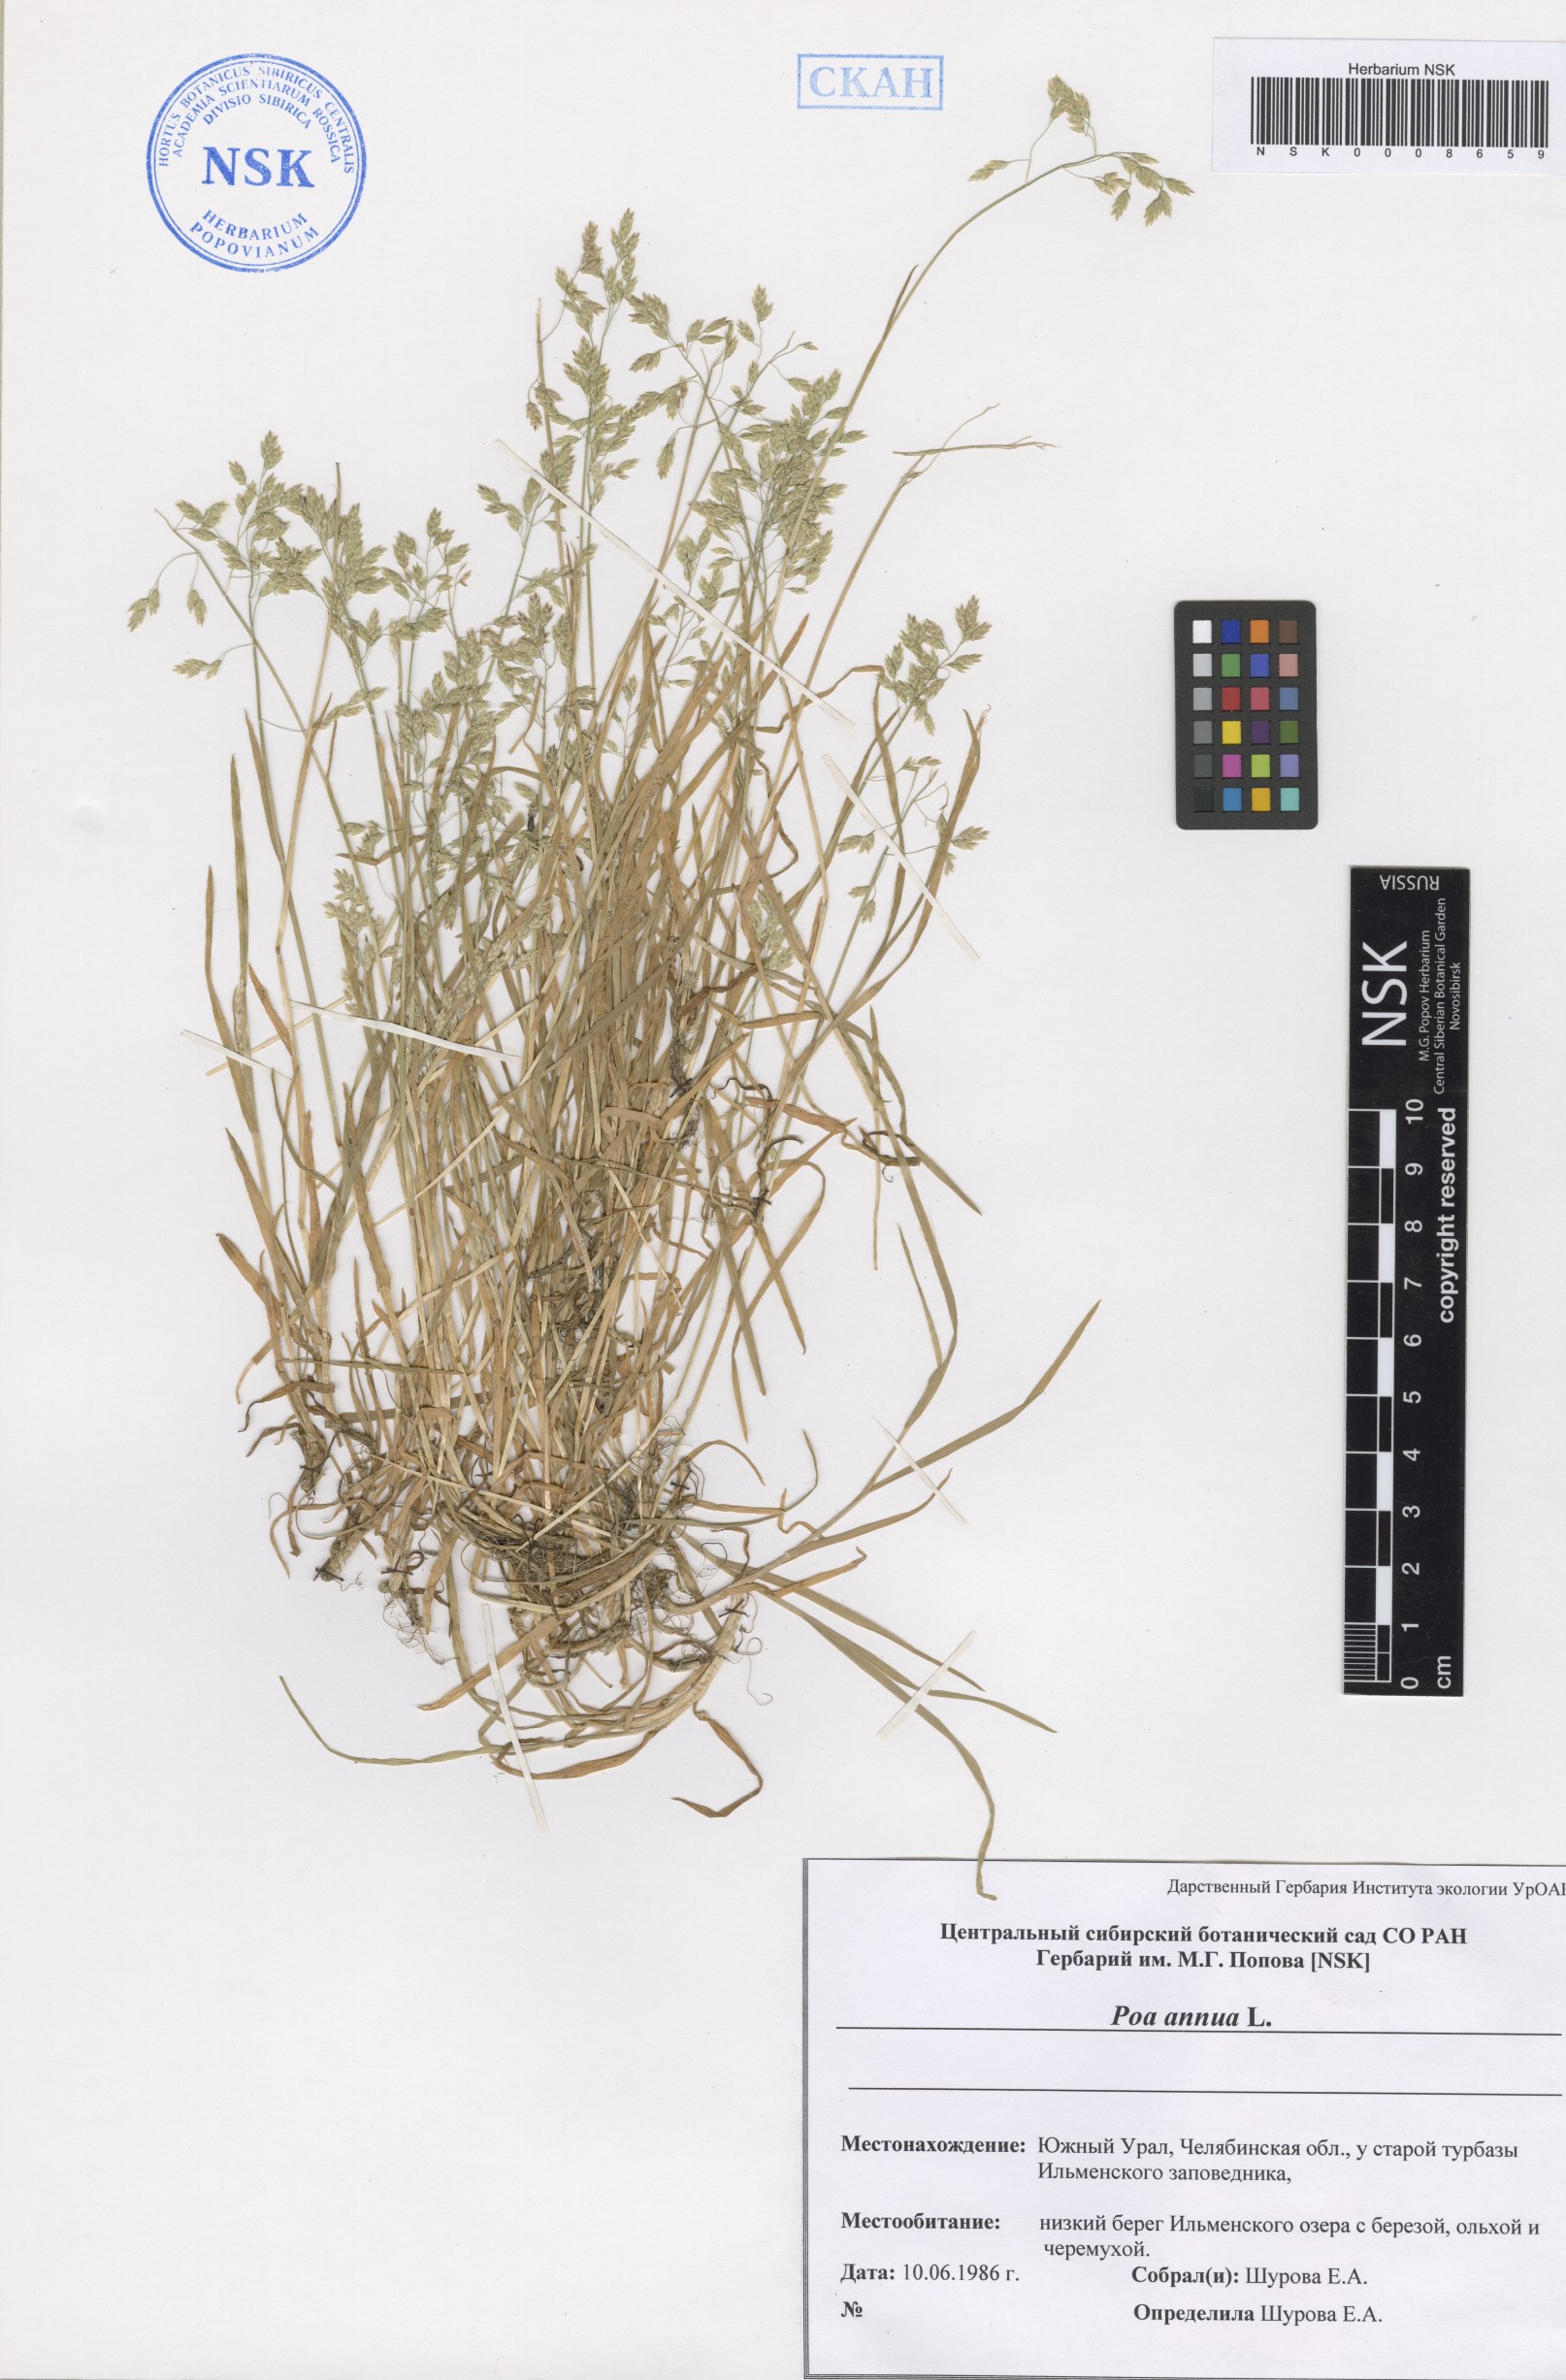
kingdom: Plantae
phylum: Tracheophyta
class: Liliopsida
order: Poales
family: Poaceae
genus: Poa
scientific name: Poa annua
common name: Annual bluegrass
